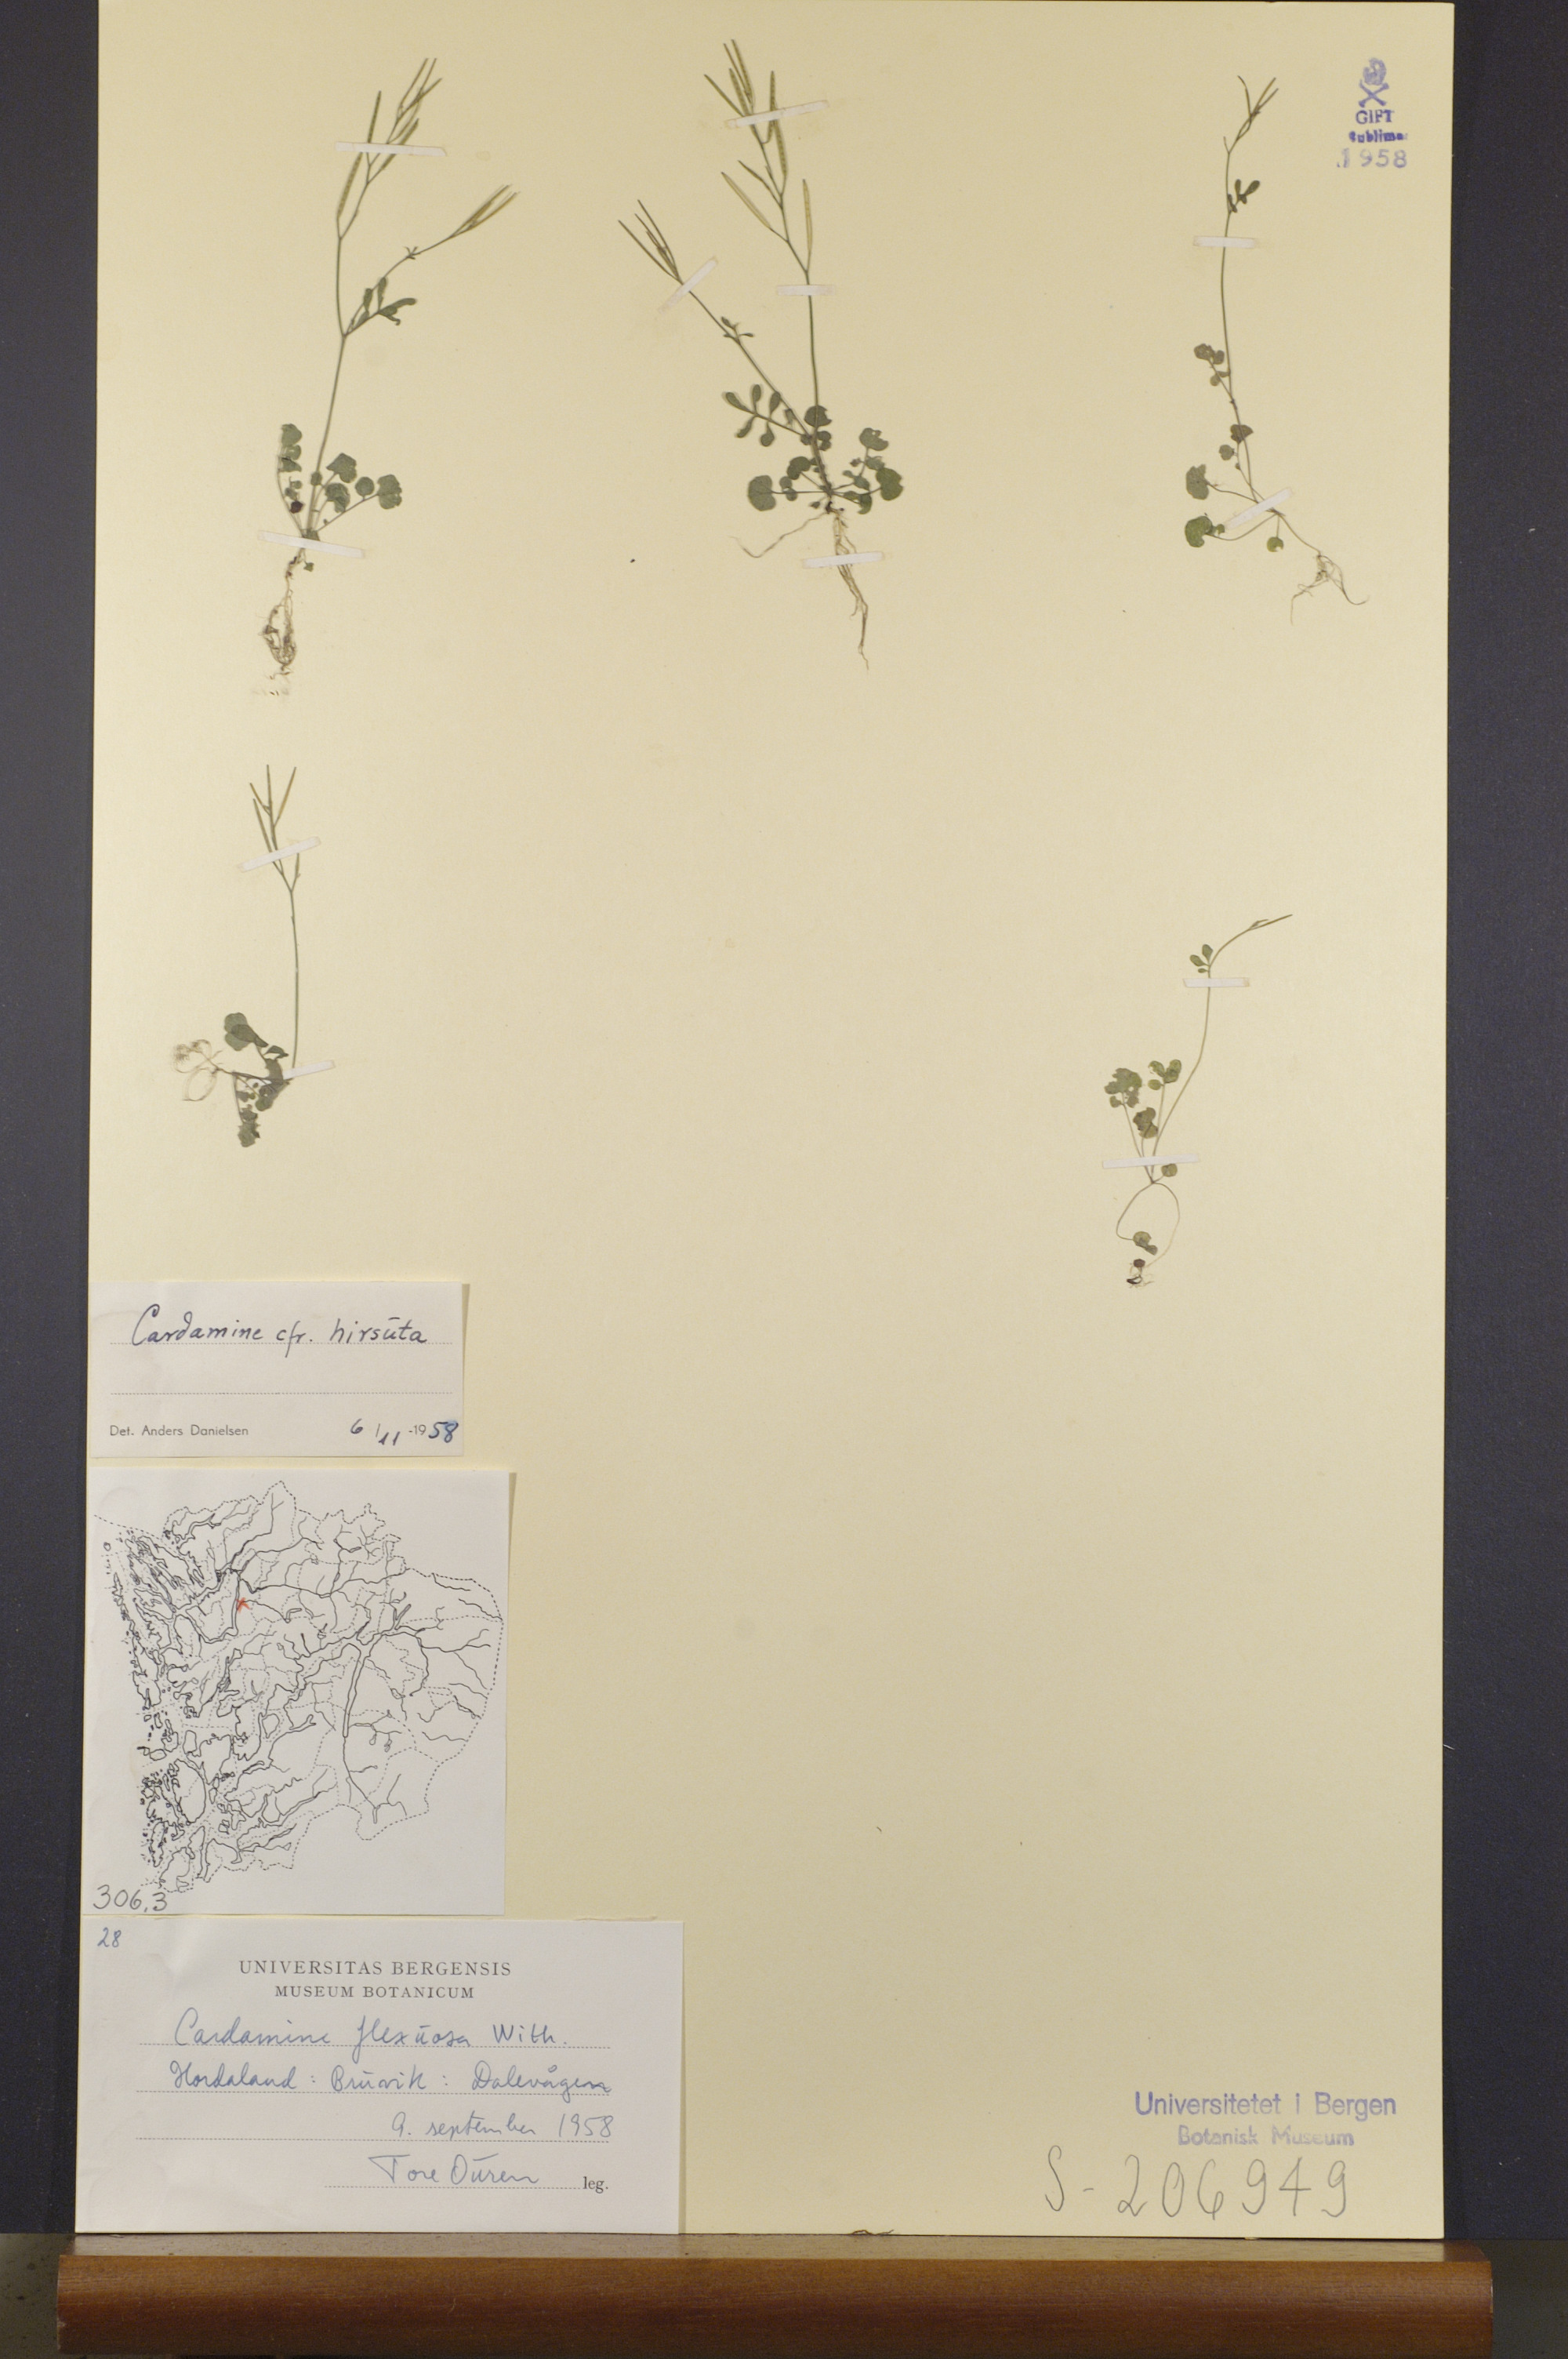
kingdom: Plantae
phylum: Tracheophyta
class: Magnoliopsida
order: Brassicales
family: Brassicaceae
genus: Cardamine
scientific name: Cardamine hirsuta
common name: Hairy bittercress
